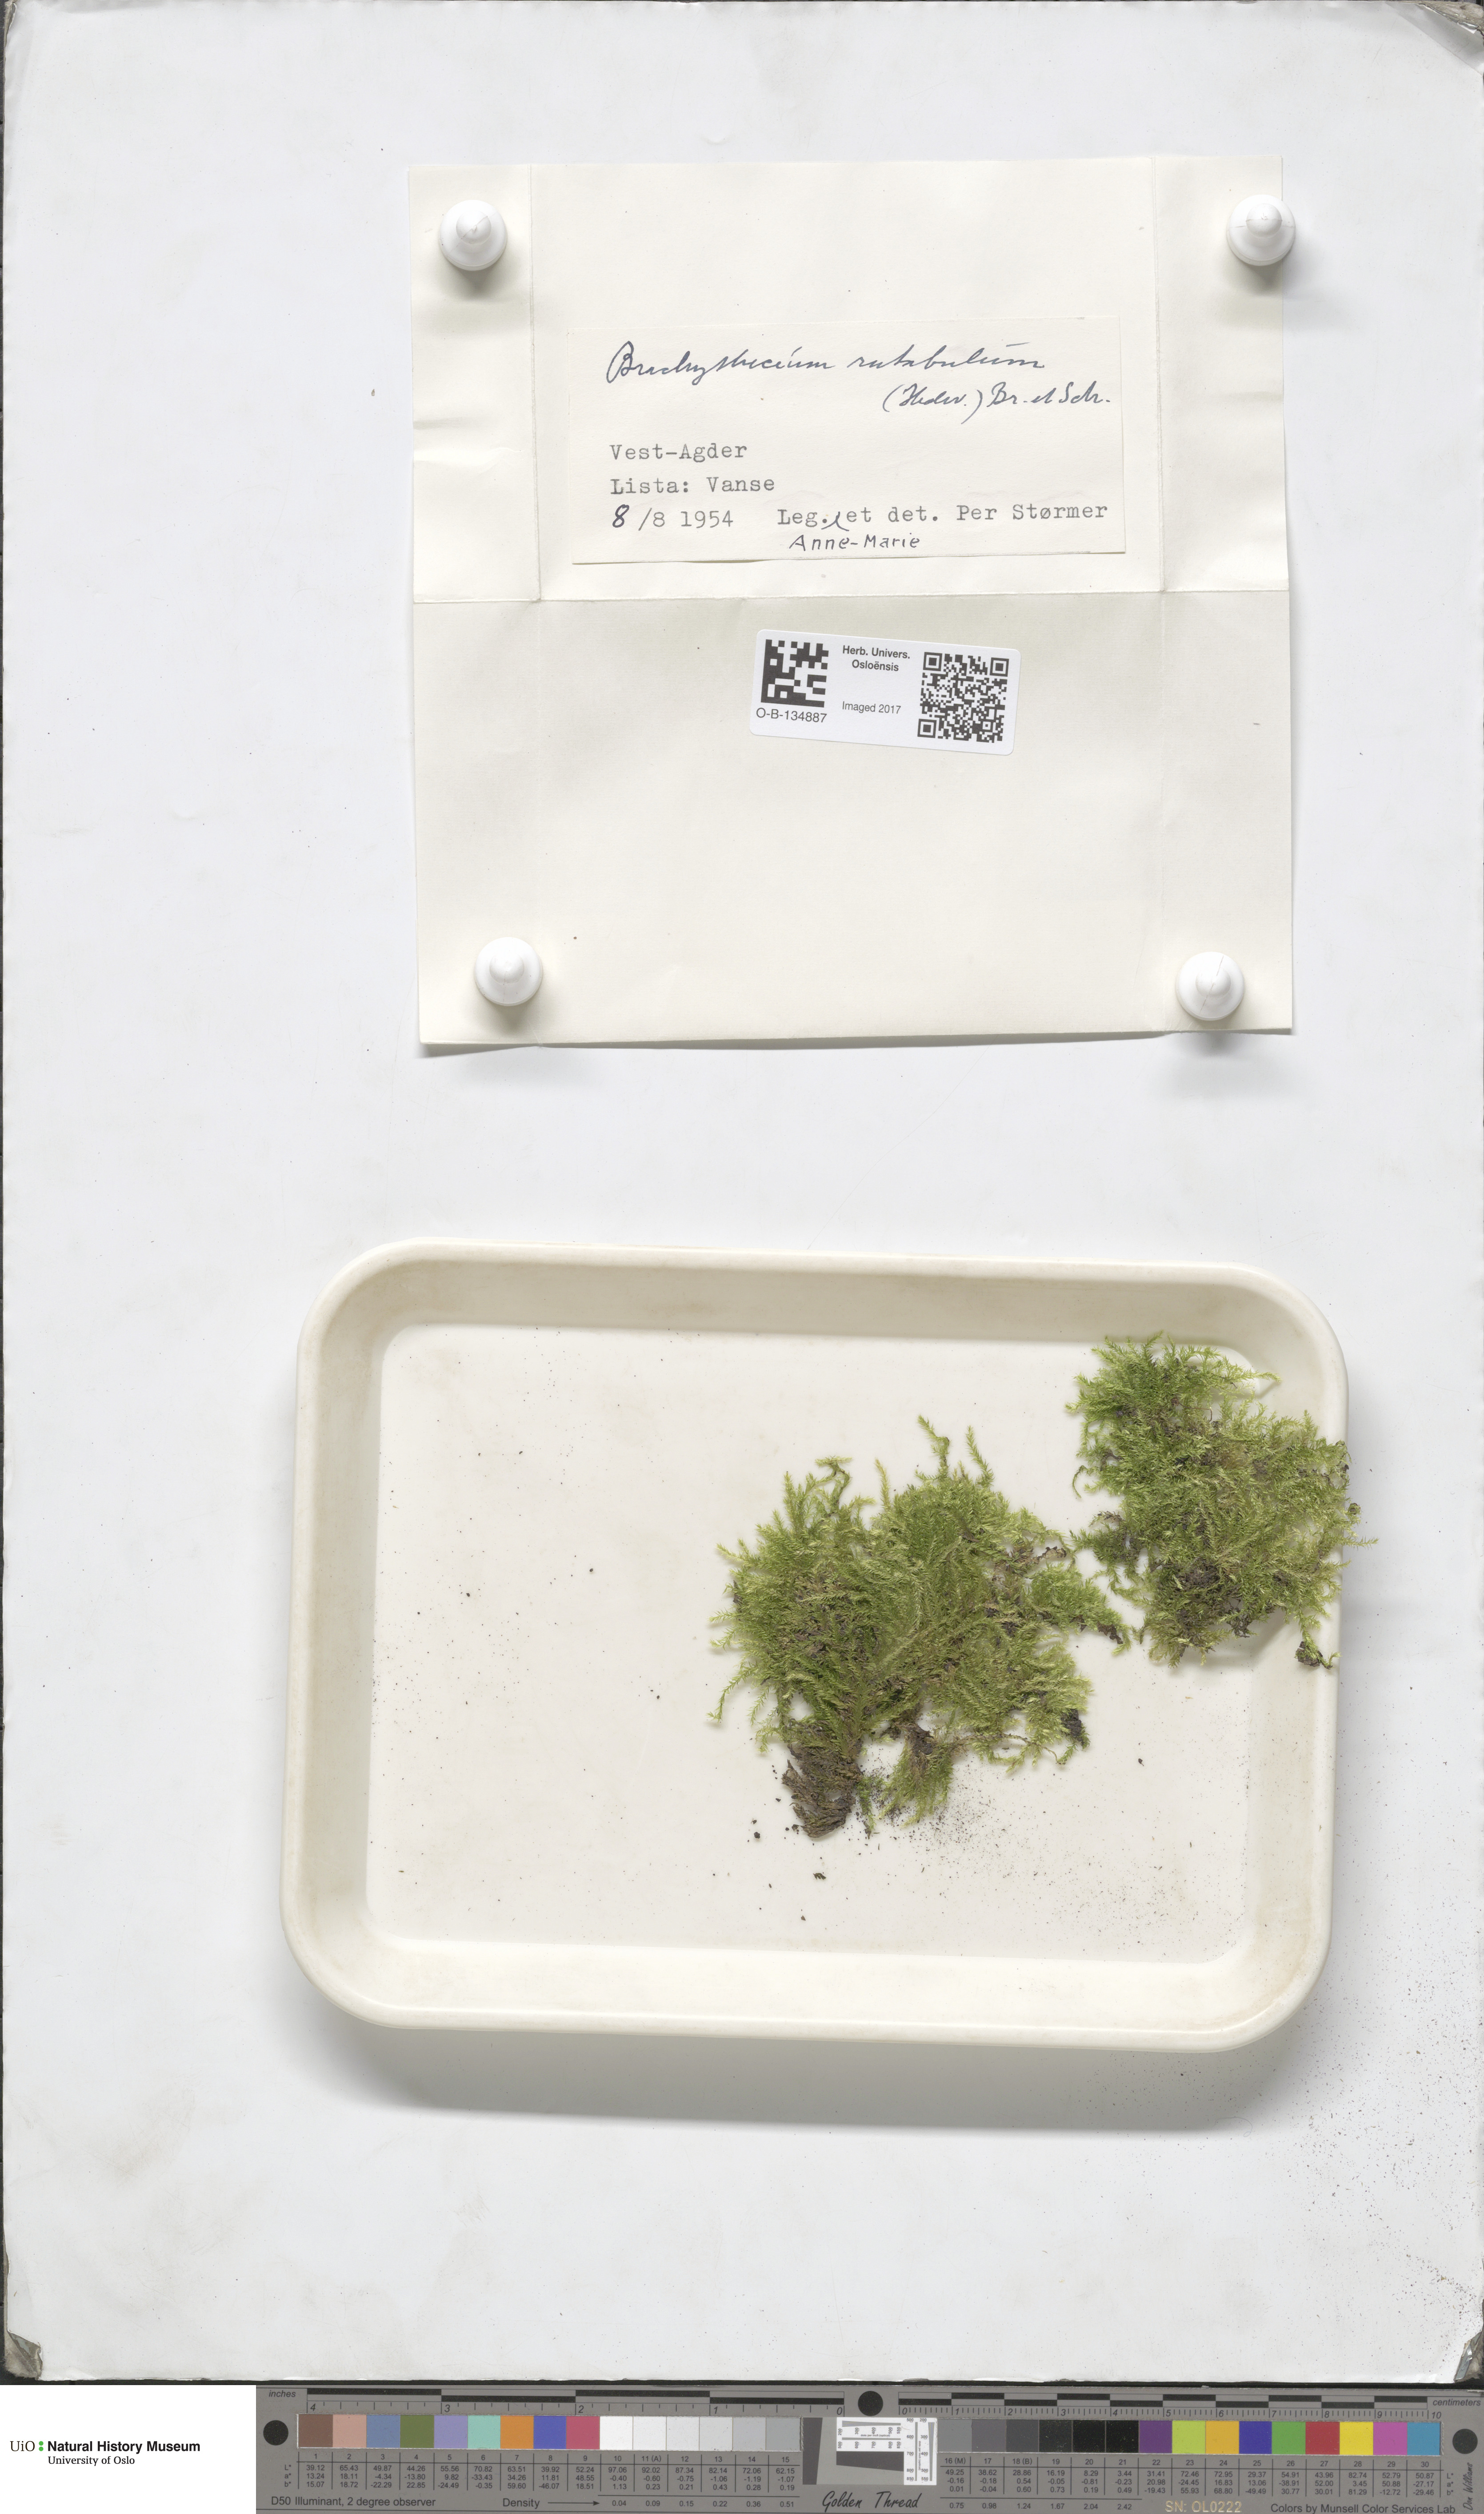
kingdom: Plantae
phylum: Bryophyta
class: Bryopsida
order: Hypnales
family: Brachytheciaceae
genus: Brachythecium
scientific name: Brachythecium rutabulum
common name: Rough-stalked feather-moss
